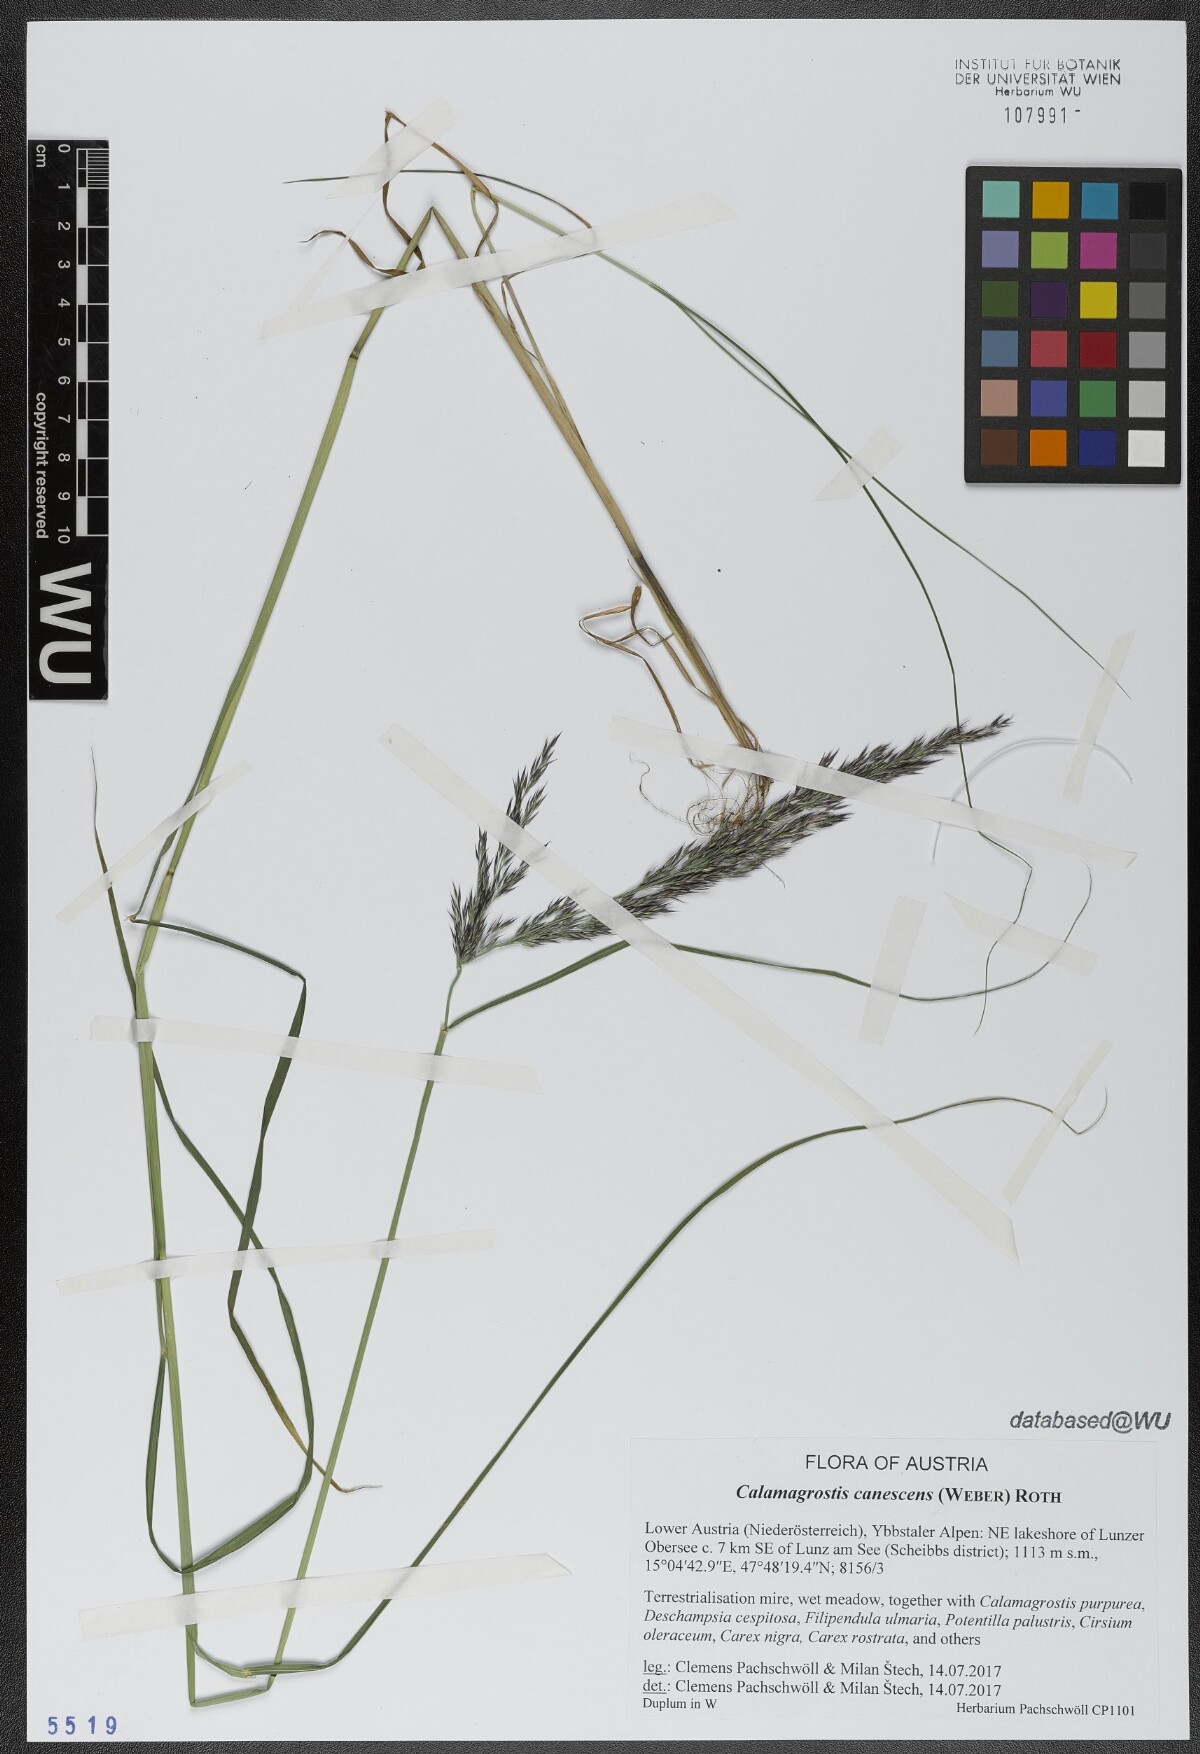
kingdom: Plantae
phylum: Tracheophyta
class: Liliopsida
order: Poales
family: Poaceae
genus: Calamagrostis
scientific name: Calamagrostis canescens
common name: Purple small-reed
